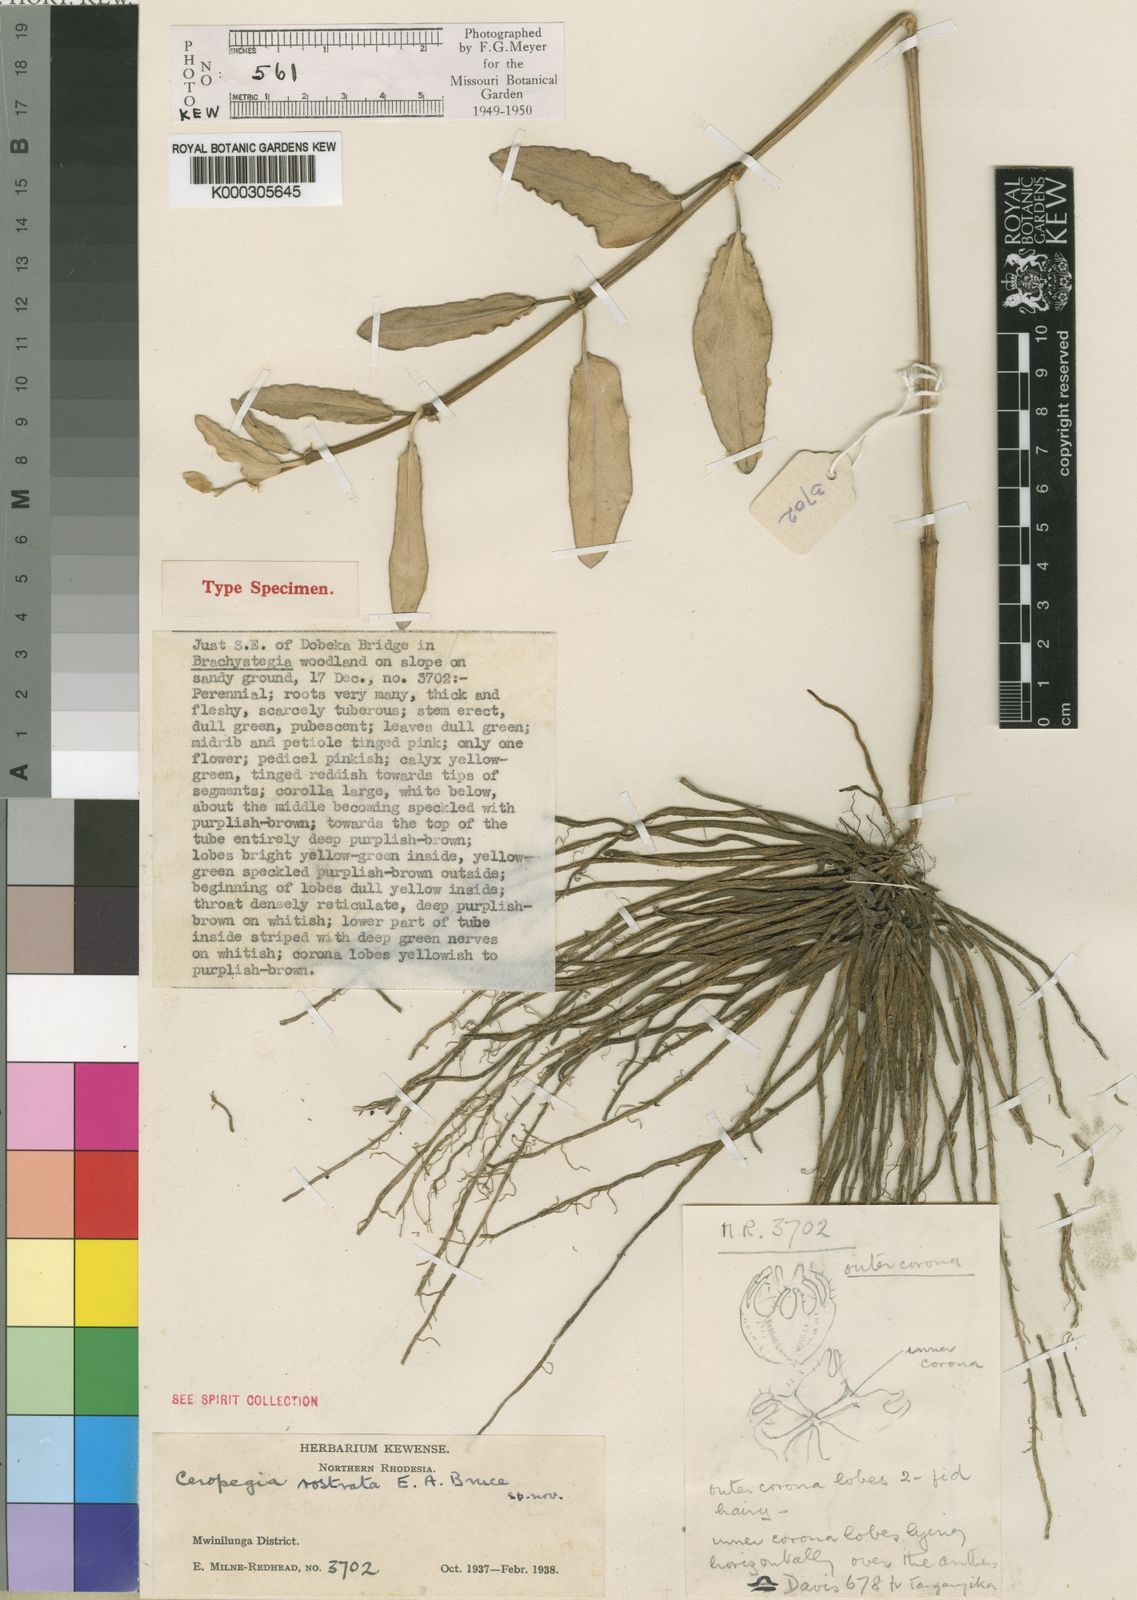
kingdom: Plantae
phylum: Tracheophyta
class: Magnoliopsida
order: Gentianales
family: Apocynaceae
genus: Ceropegia
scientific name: Ceropegia umbraticola
